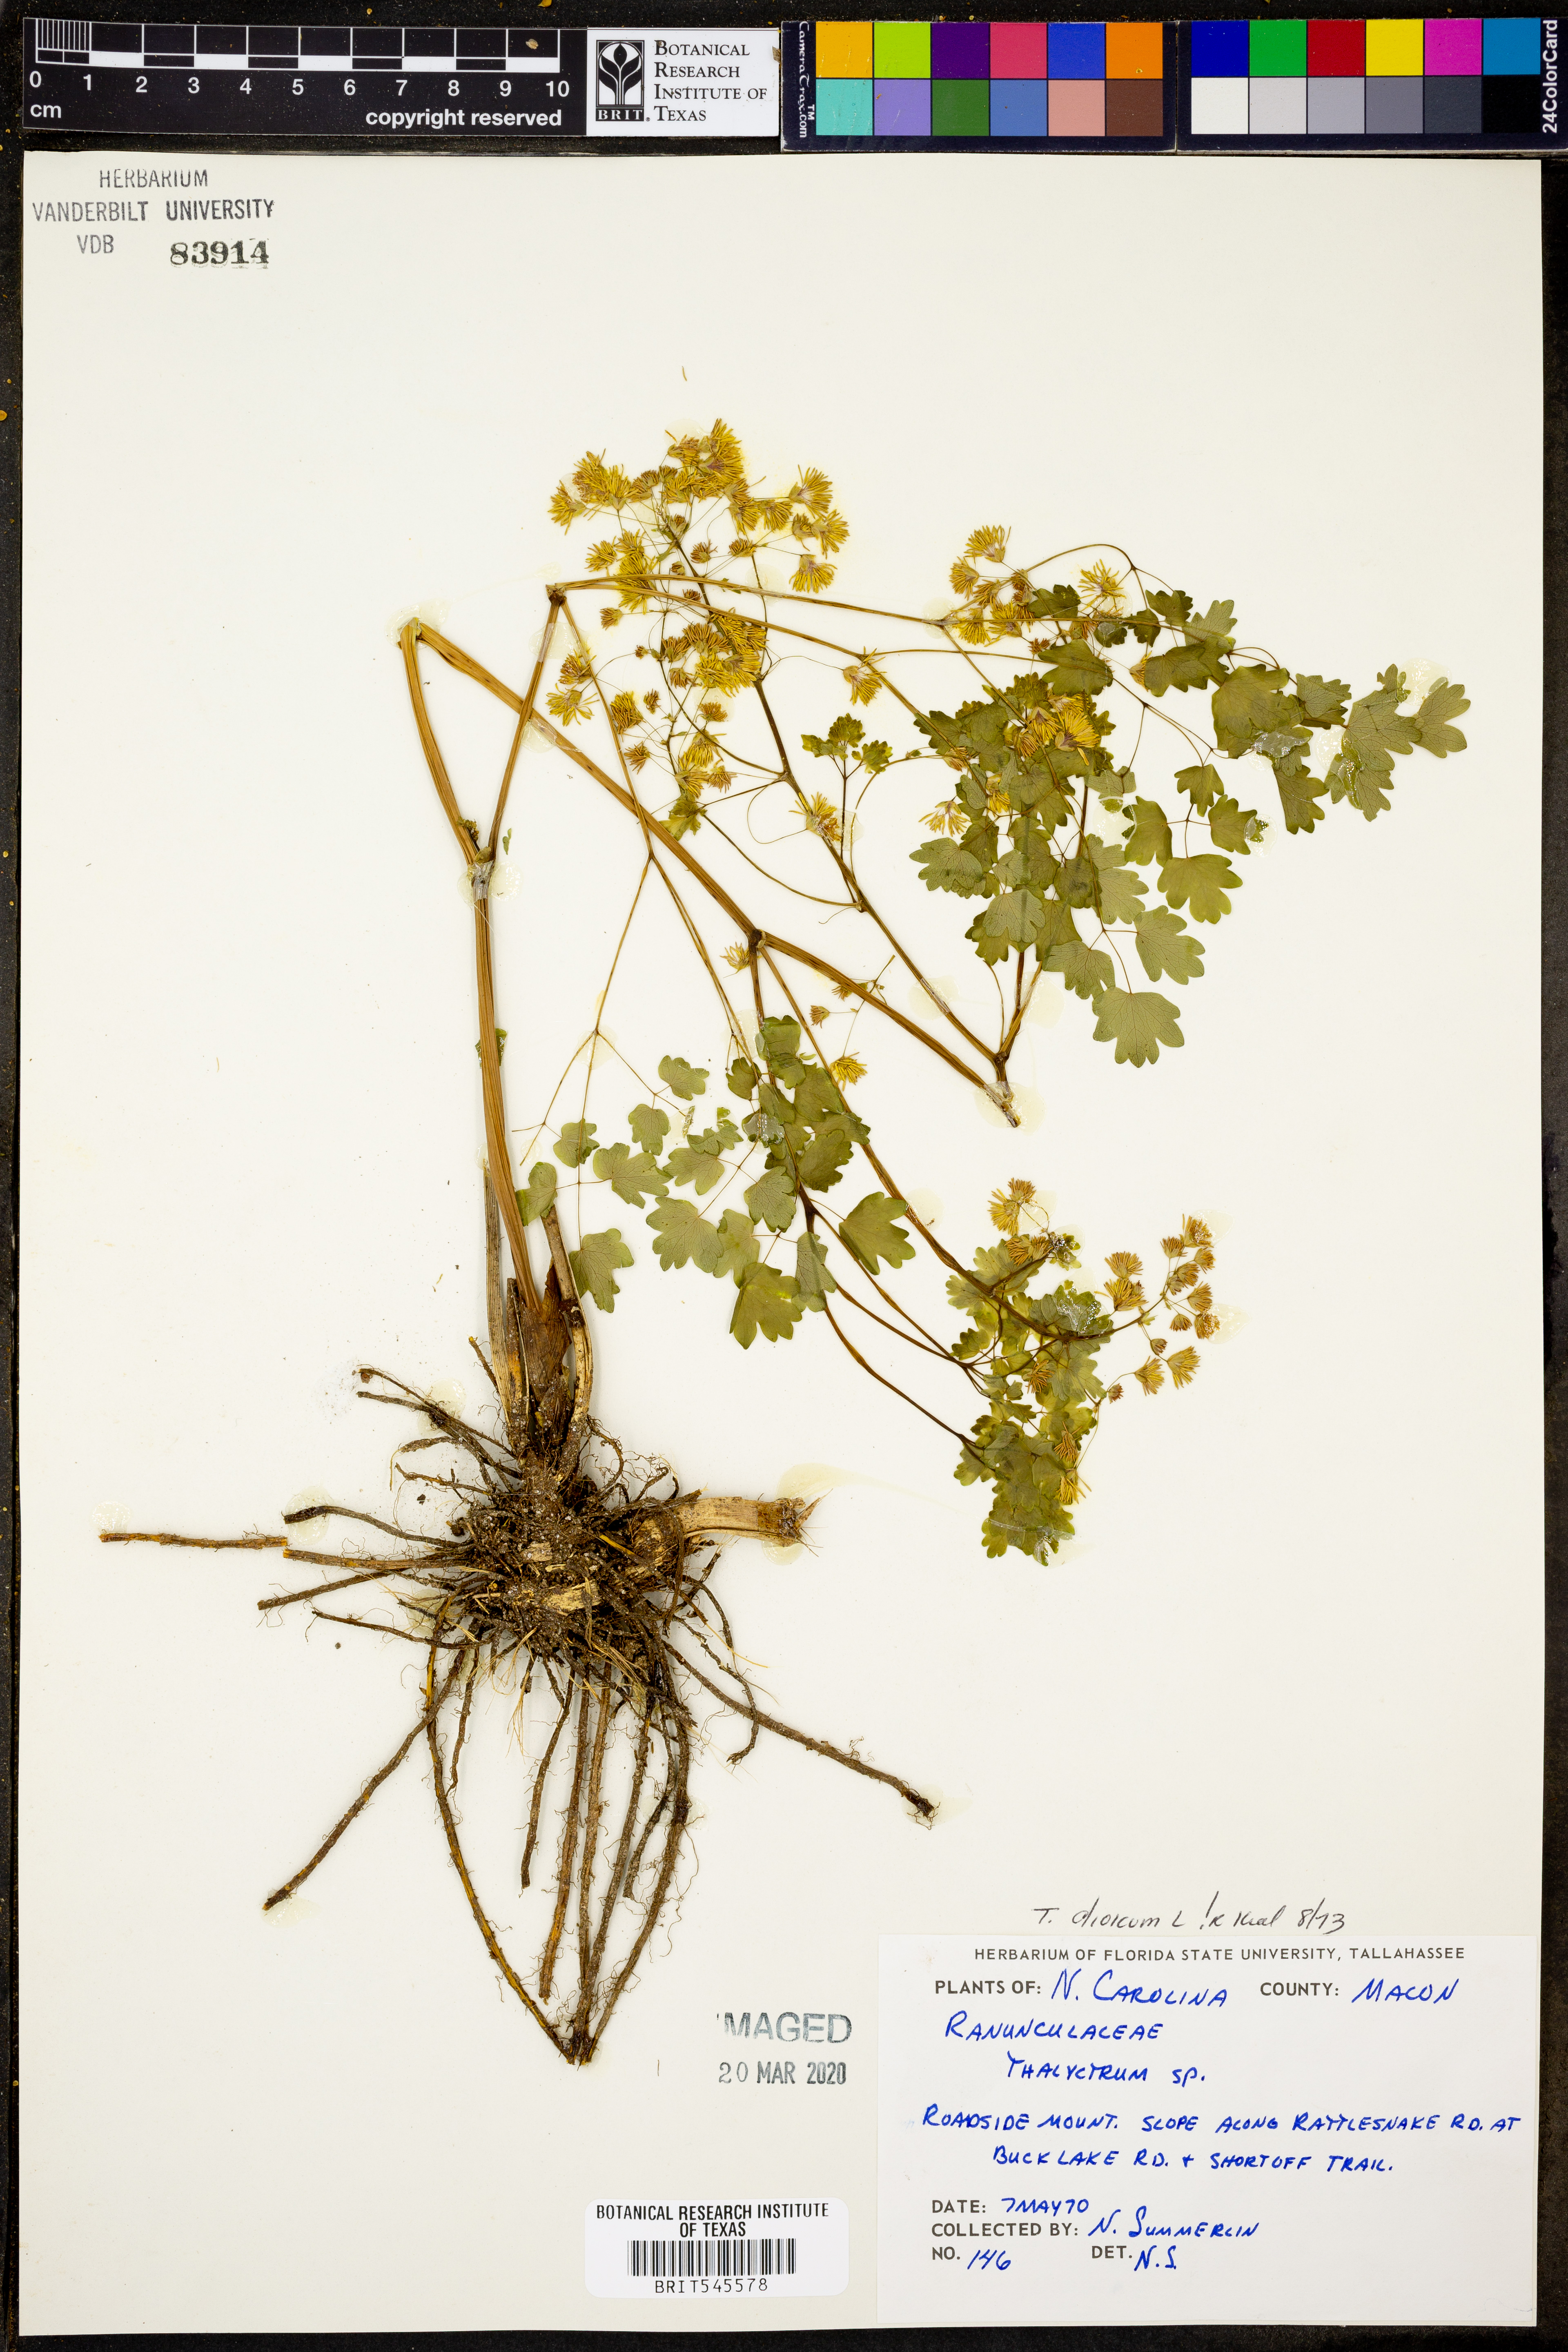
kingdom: Plantae
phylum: Tracheophyta
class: Magnoliopsida
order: Ranunculales
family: Ranunculaceae
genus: Thalictrum
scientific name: Thalictrum dioicum
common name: Early meadow-rue
